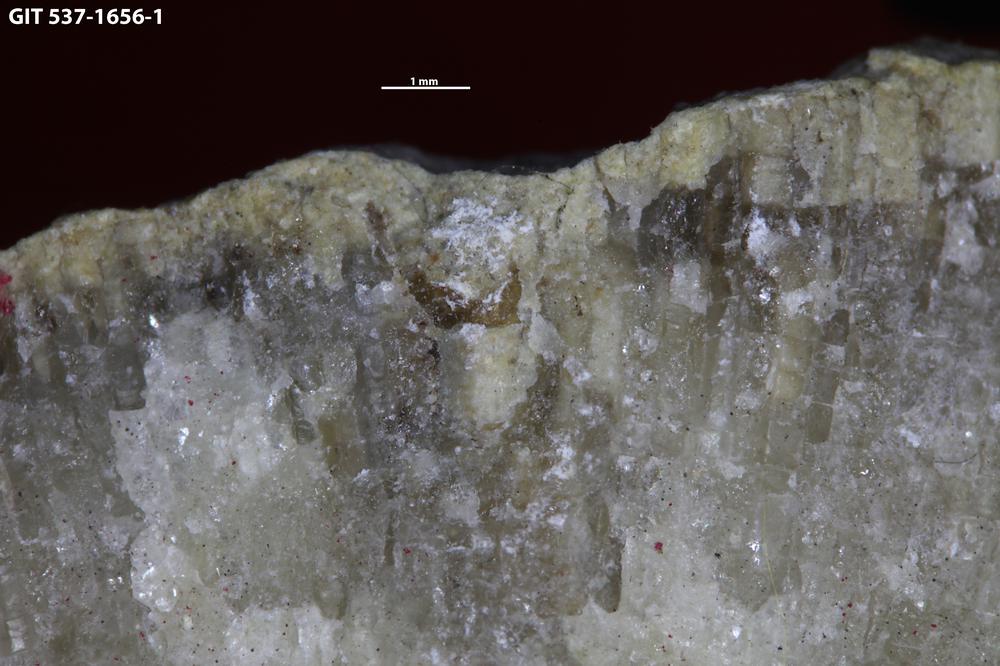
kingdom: Animalia
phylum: Cnidaria
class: Scyphozoa
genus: Climacoconus
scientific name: Climacoconus
